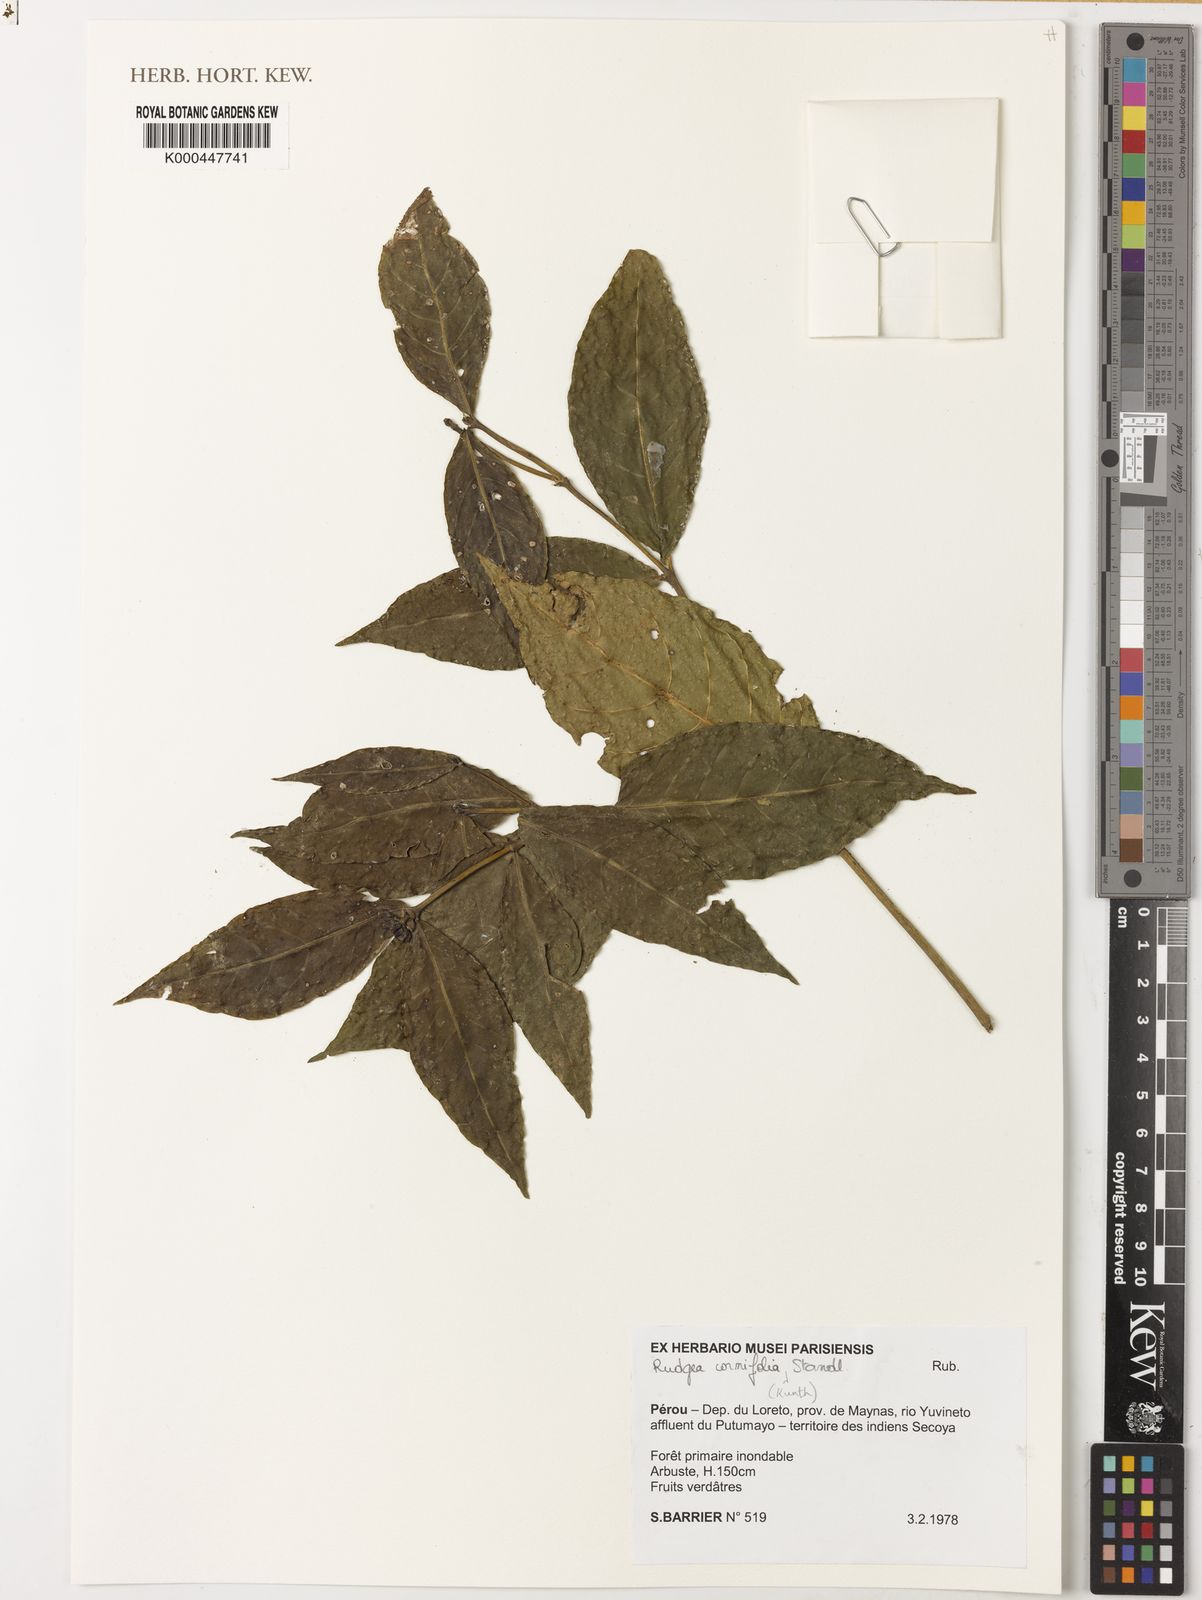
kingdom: Plantae
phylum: Tracheophyta
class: Magnoliopsida
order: Gentianales
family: Rubiaceae
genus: Rudgea
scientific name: Rudgea cornifolia
